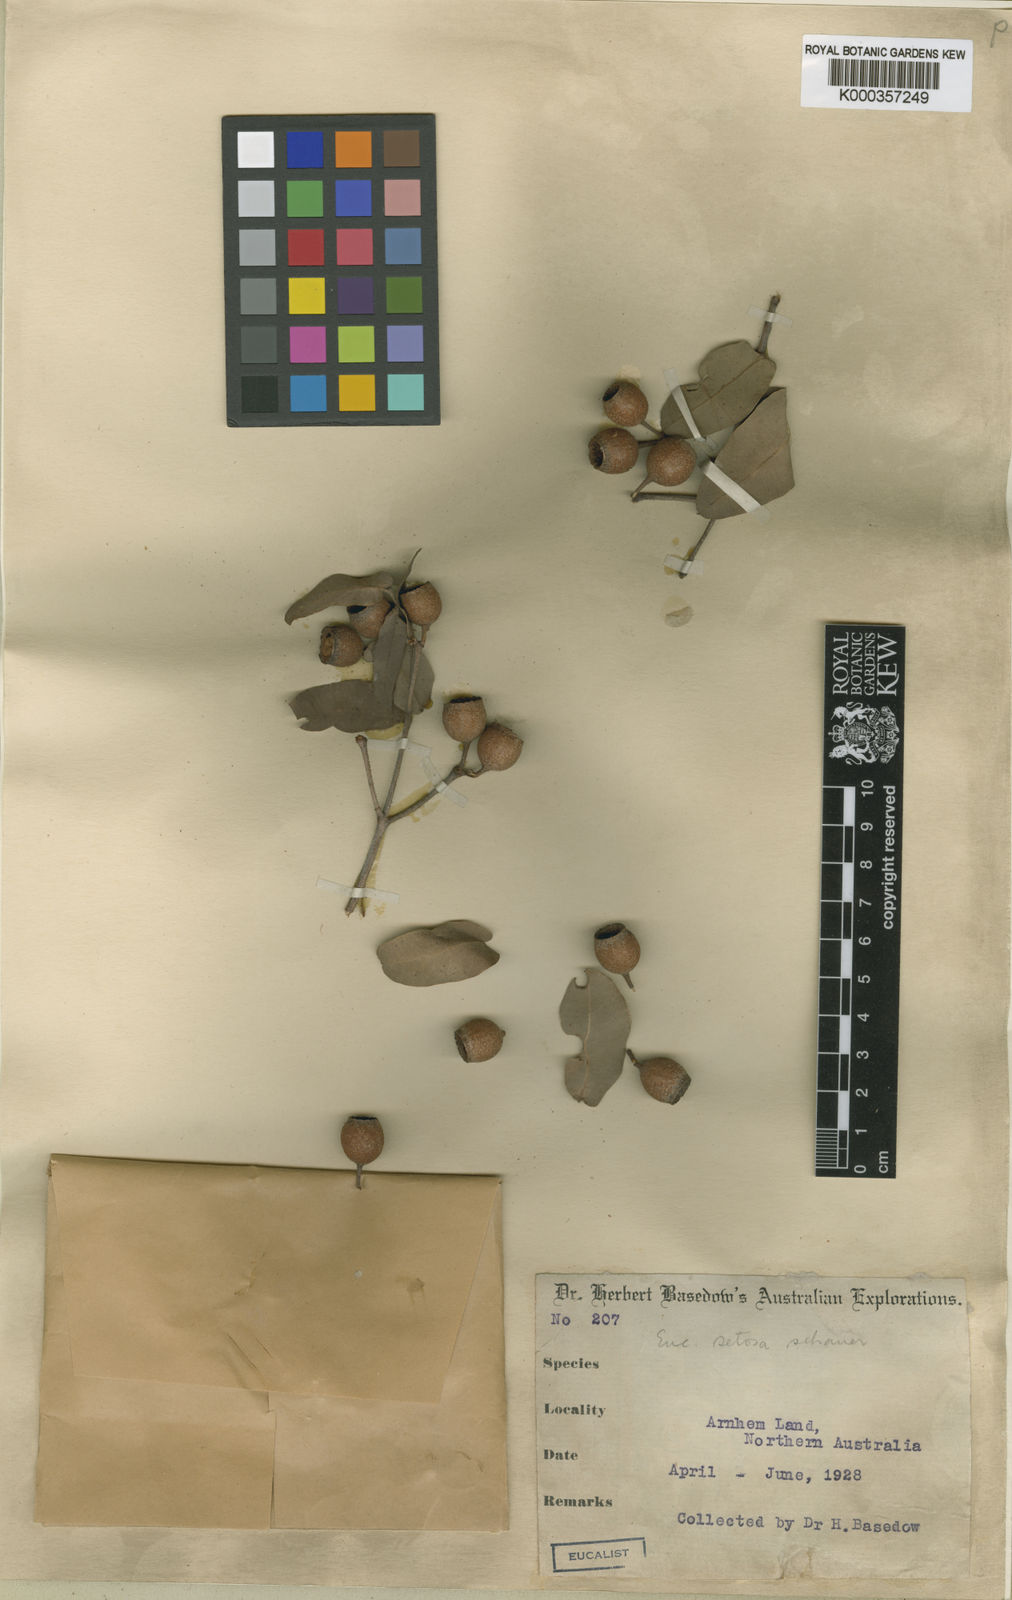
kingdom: Plantae
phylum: Tracheophyta
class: Magnoliopsida
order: Myrtales
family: Myrtaceae
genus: Corymbia
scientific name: Corymbia setosa
